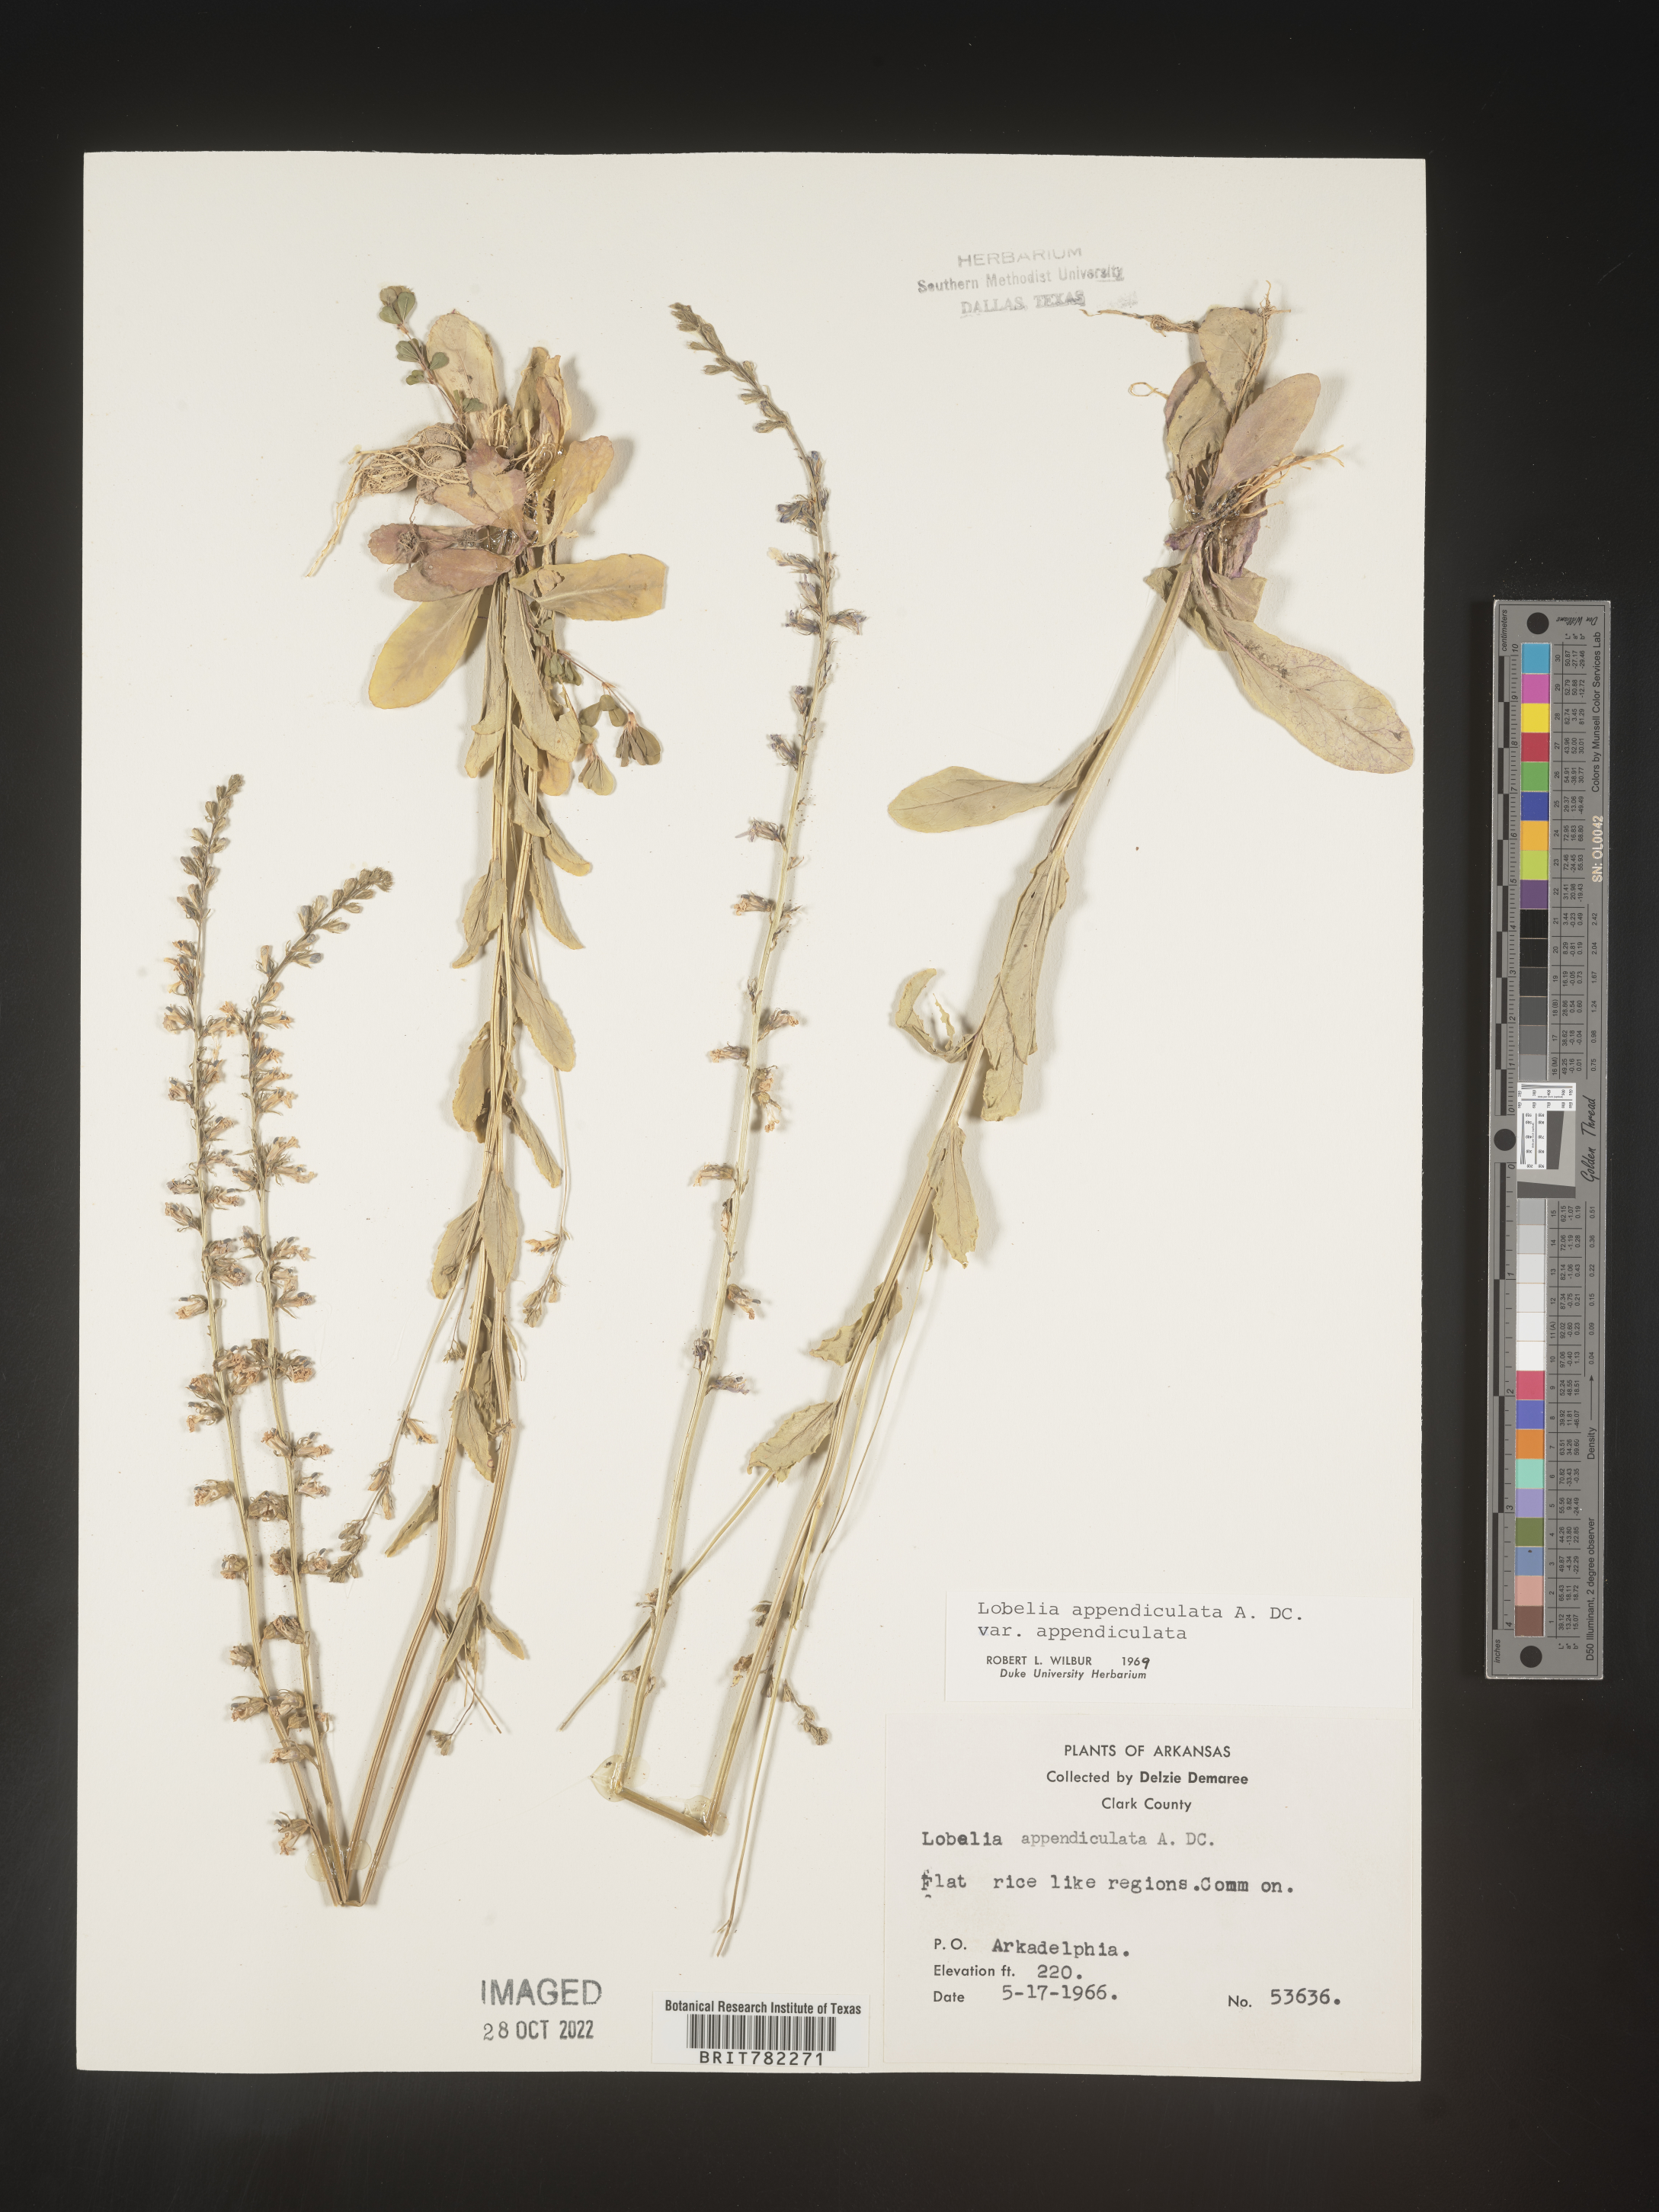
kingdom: Plantae
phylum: Tracheophyta
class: Magnoliopsida
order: Asterales
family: Campanulaceae
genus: Lobelia
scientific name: Lobelia appendiculata
